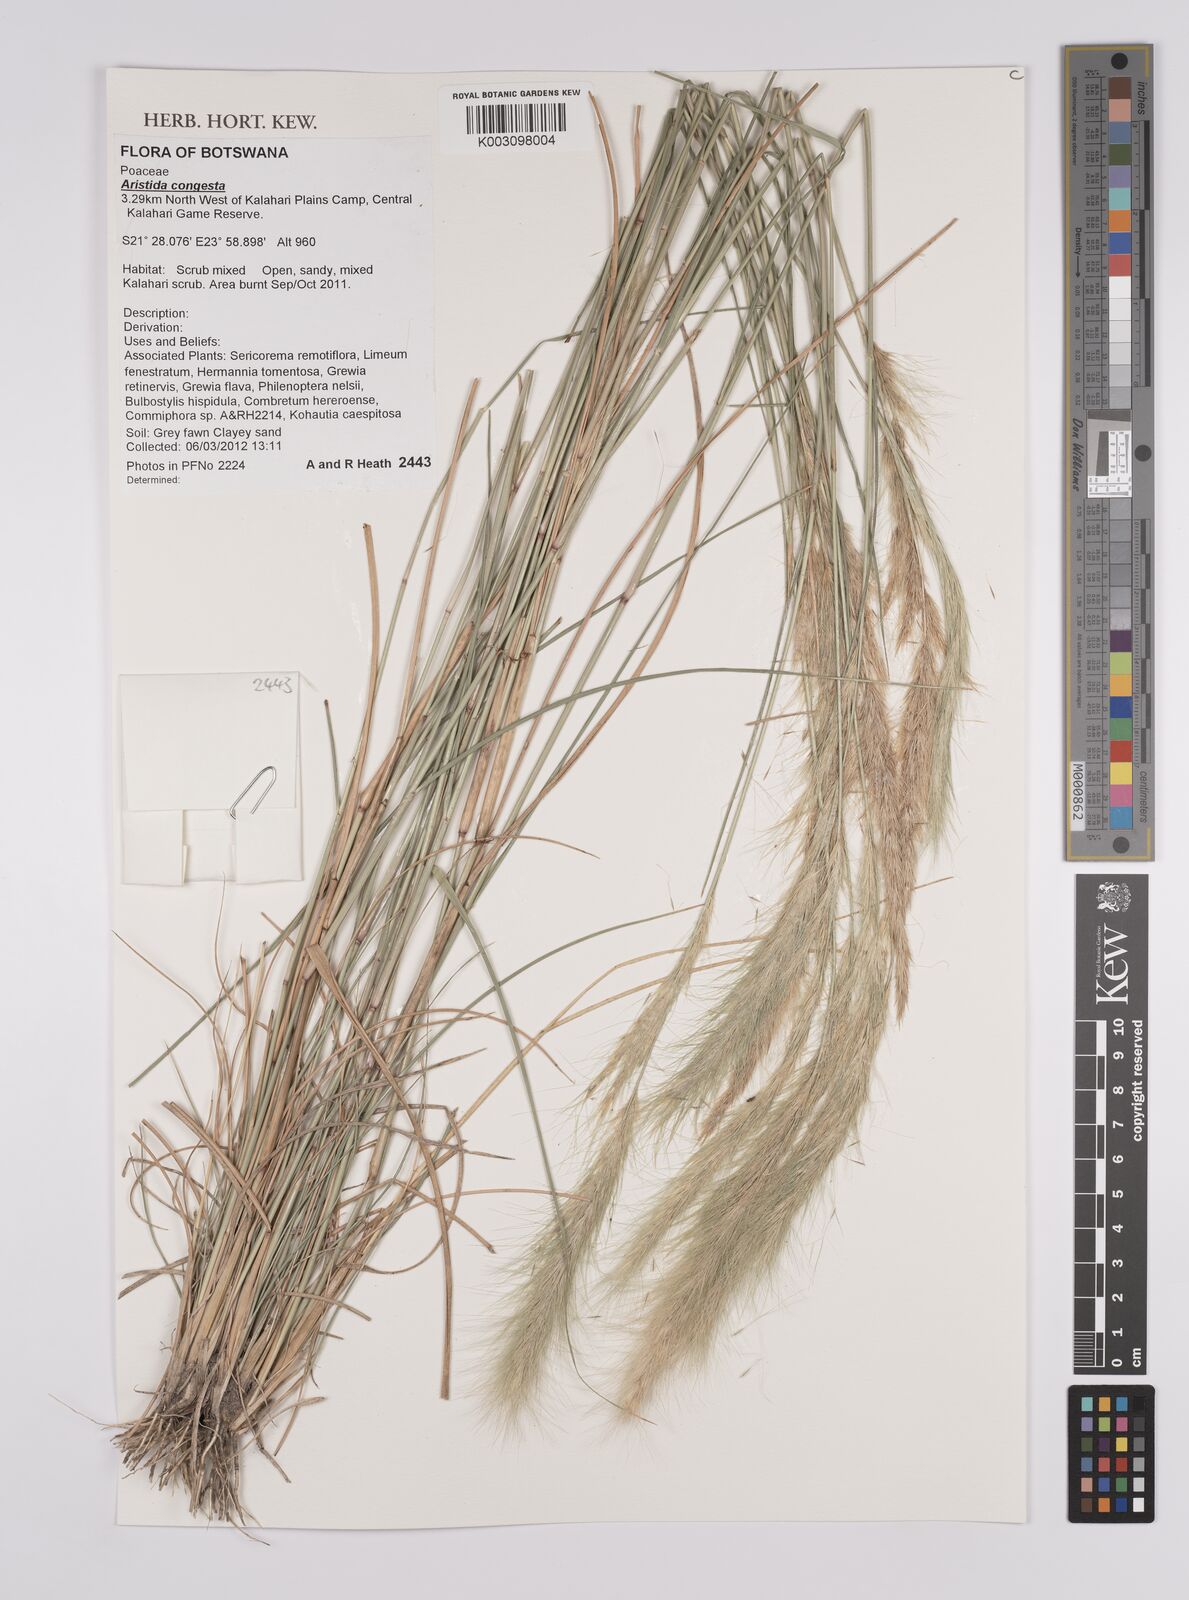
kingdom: Plantae
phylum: Tracheophyta
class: Liliopsida
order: Poales
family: Poaceae
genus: Aristida
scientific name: Aristida congesta
